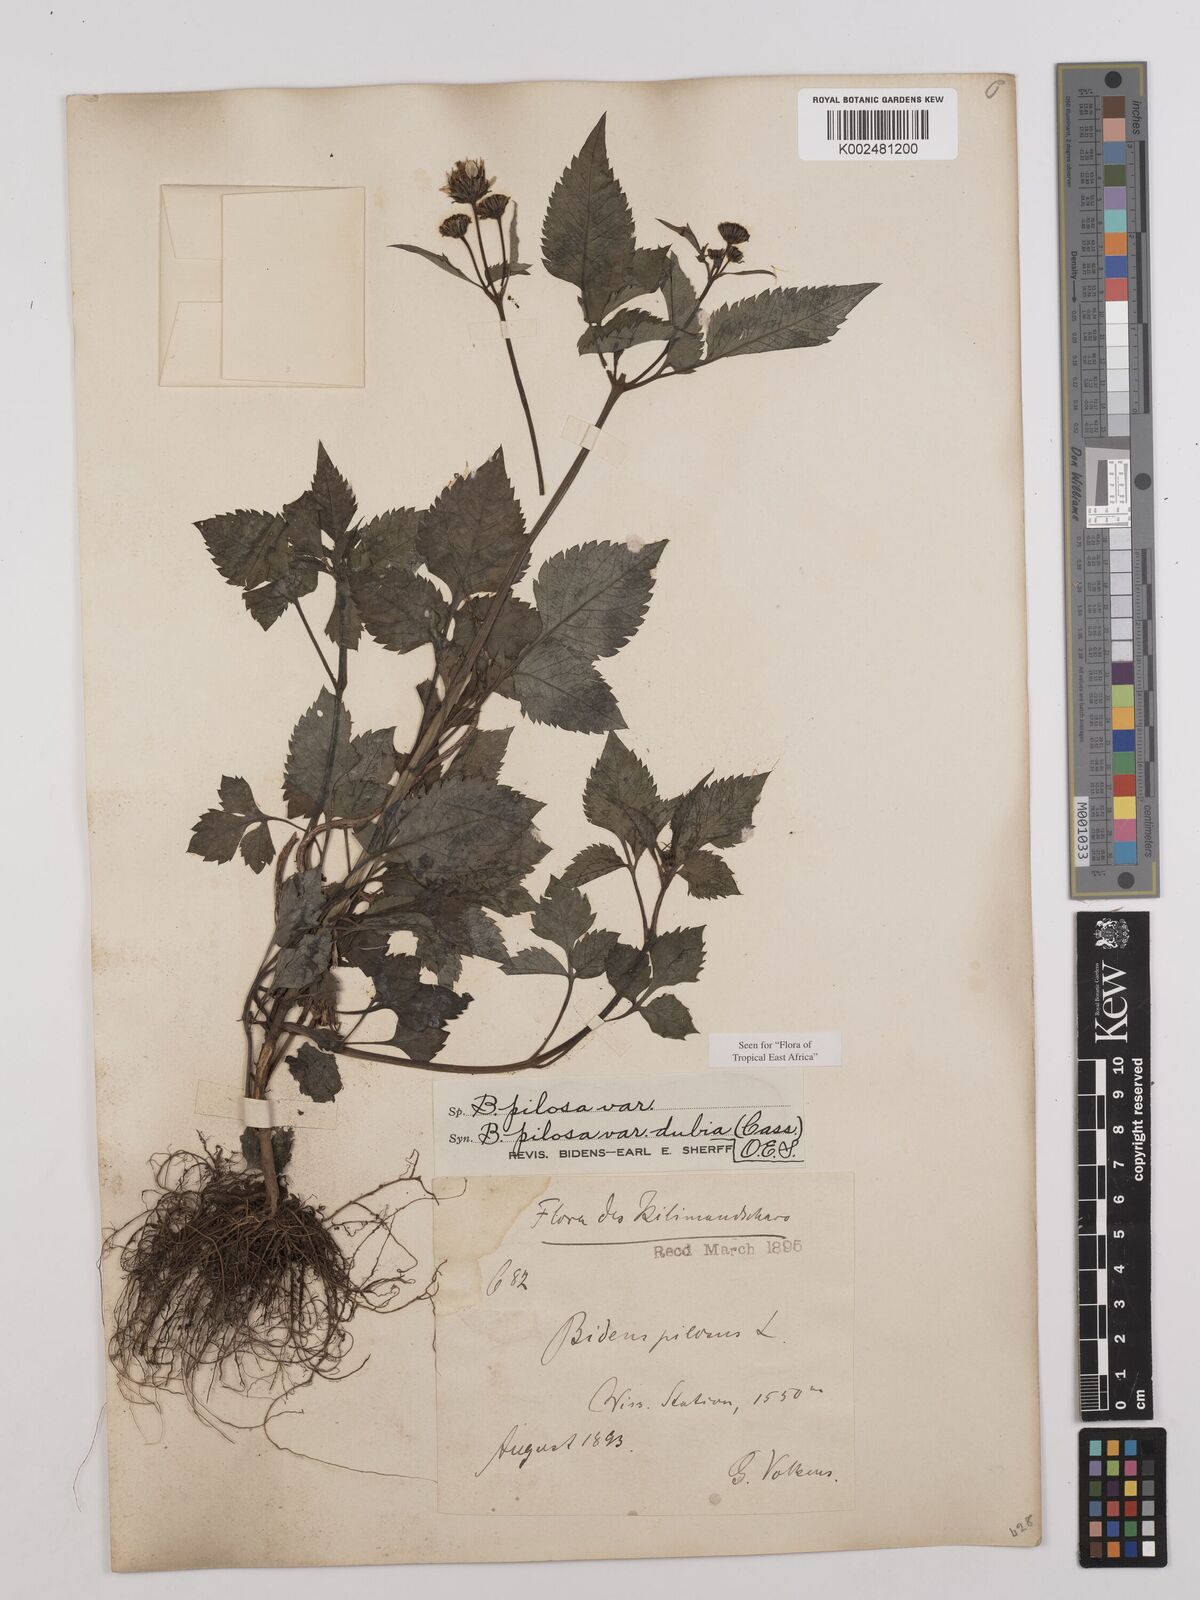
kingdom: Plantae
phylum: Tracheophyta
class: Magnoliopsida
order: Asterales
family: Asteraceae
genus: Bidens
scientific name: Bidens pilosa
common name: Black-jack
